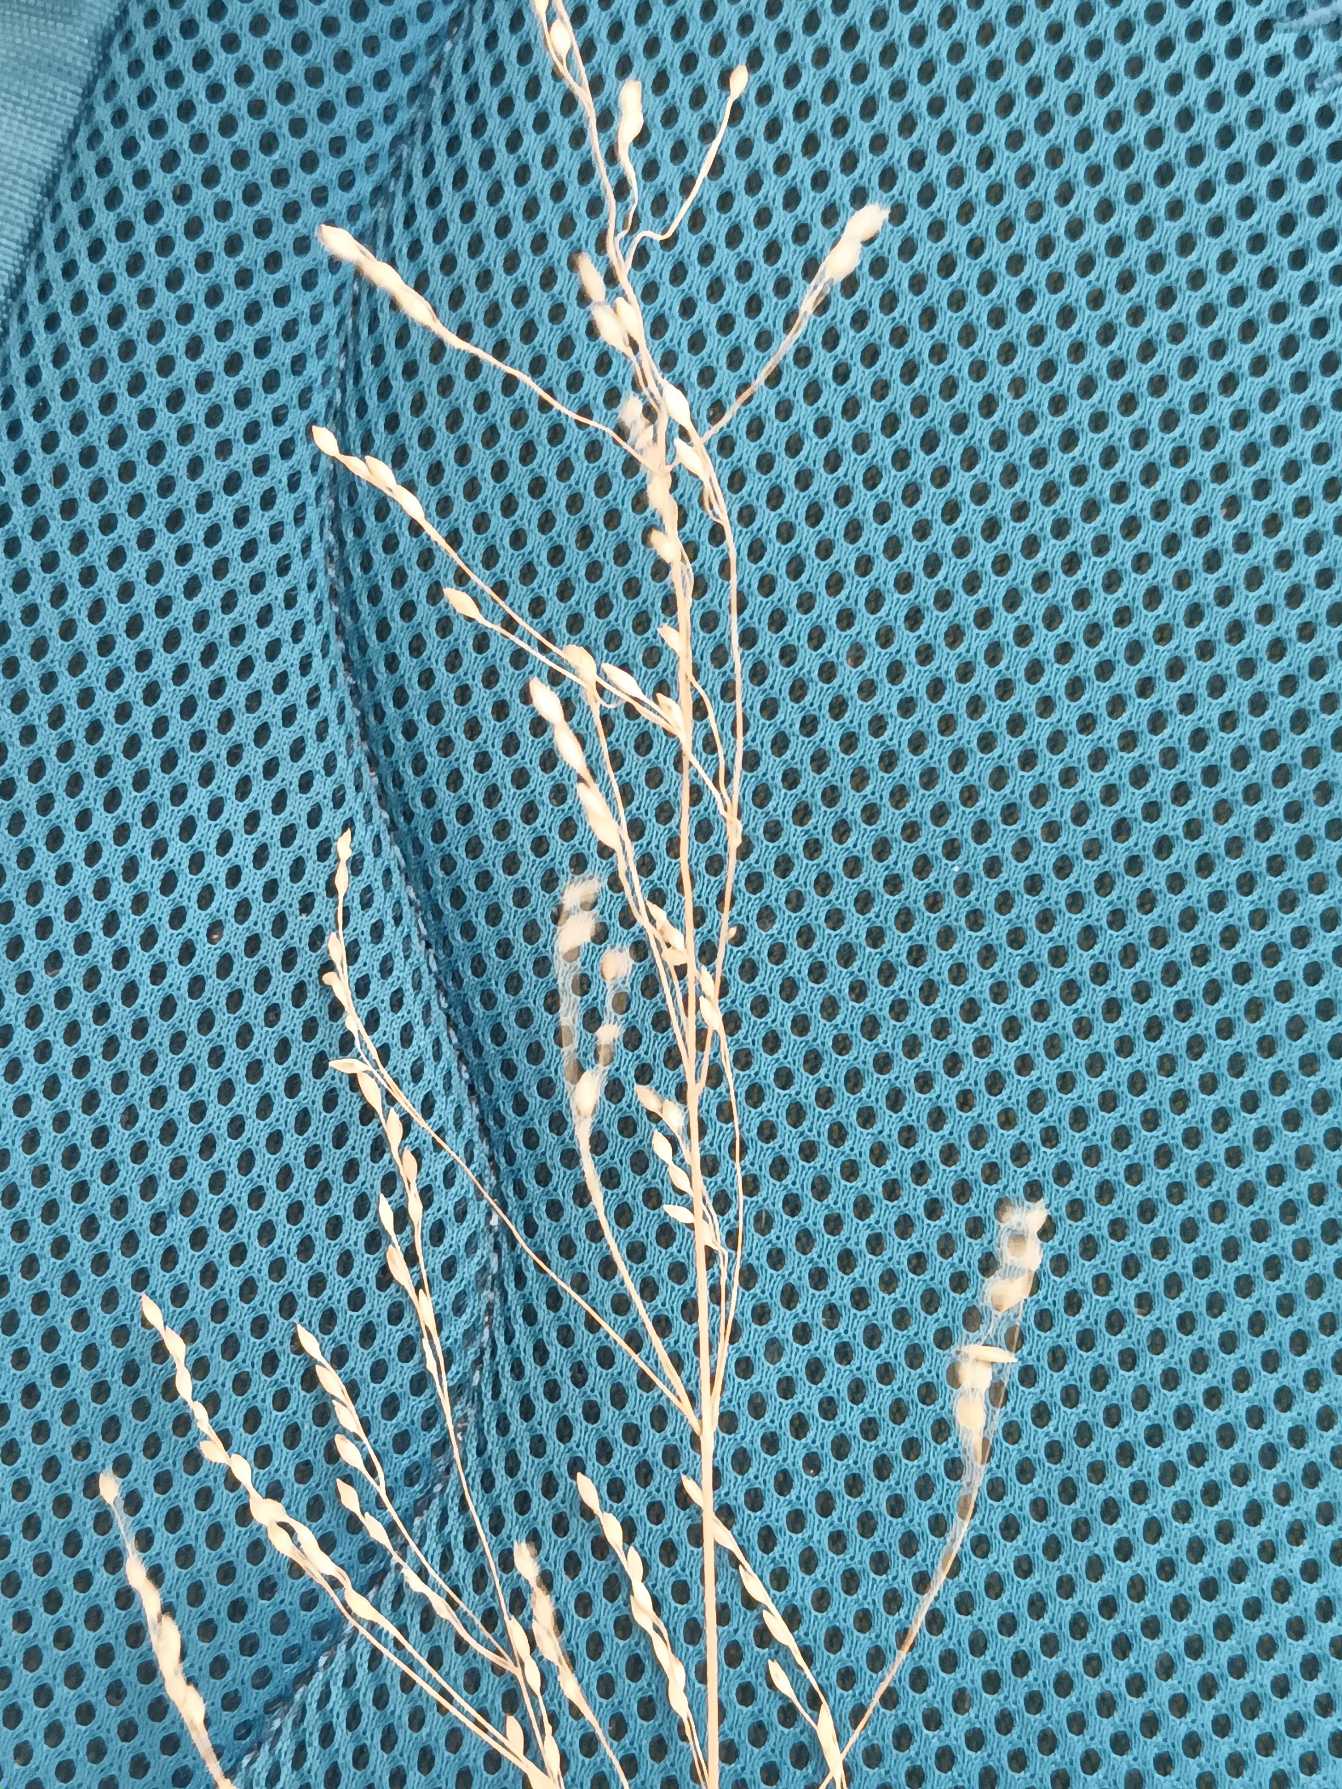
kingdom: Plantae
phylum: Tracheophyta
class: Liliopsida
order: Poales
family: Poaceae
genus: Milium
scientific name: Milium effusum
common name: Miliegræs
